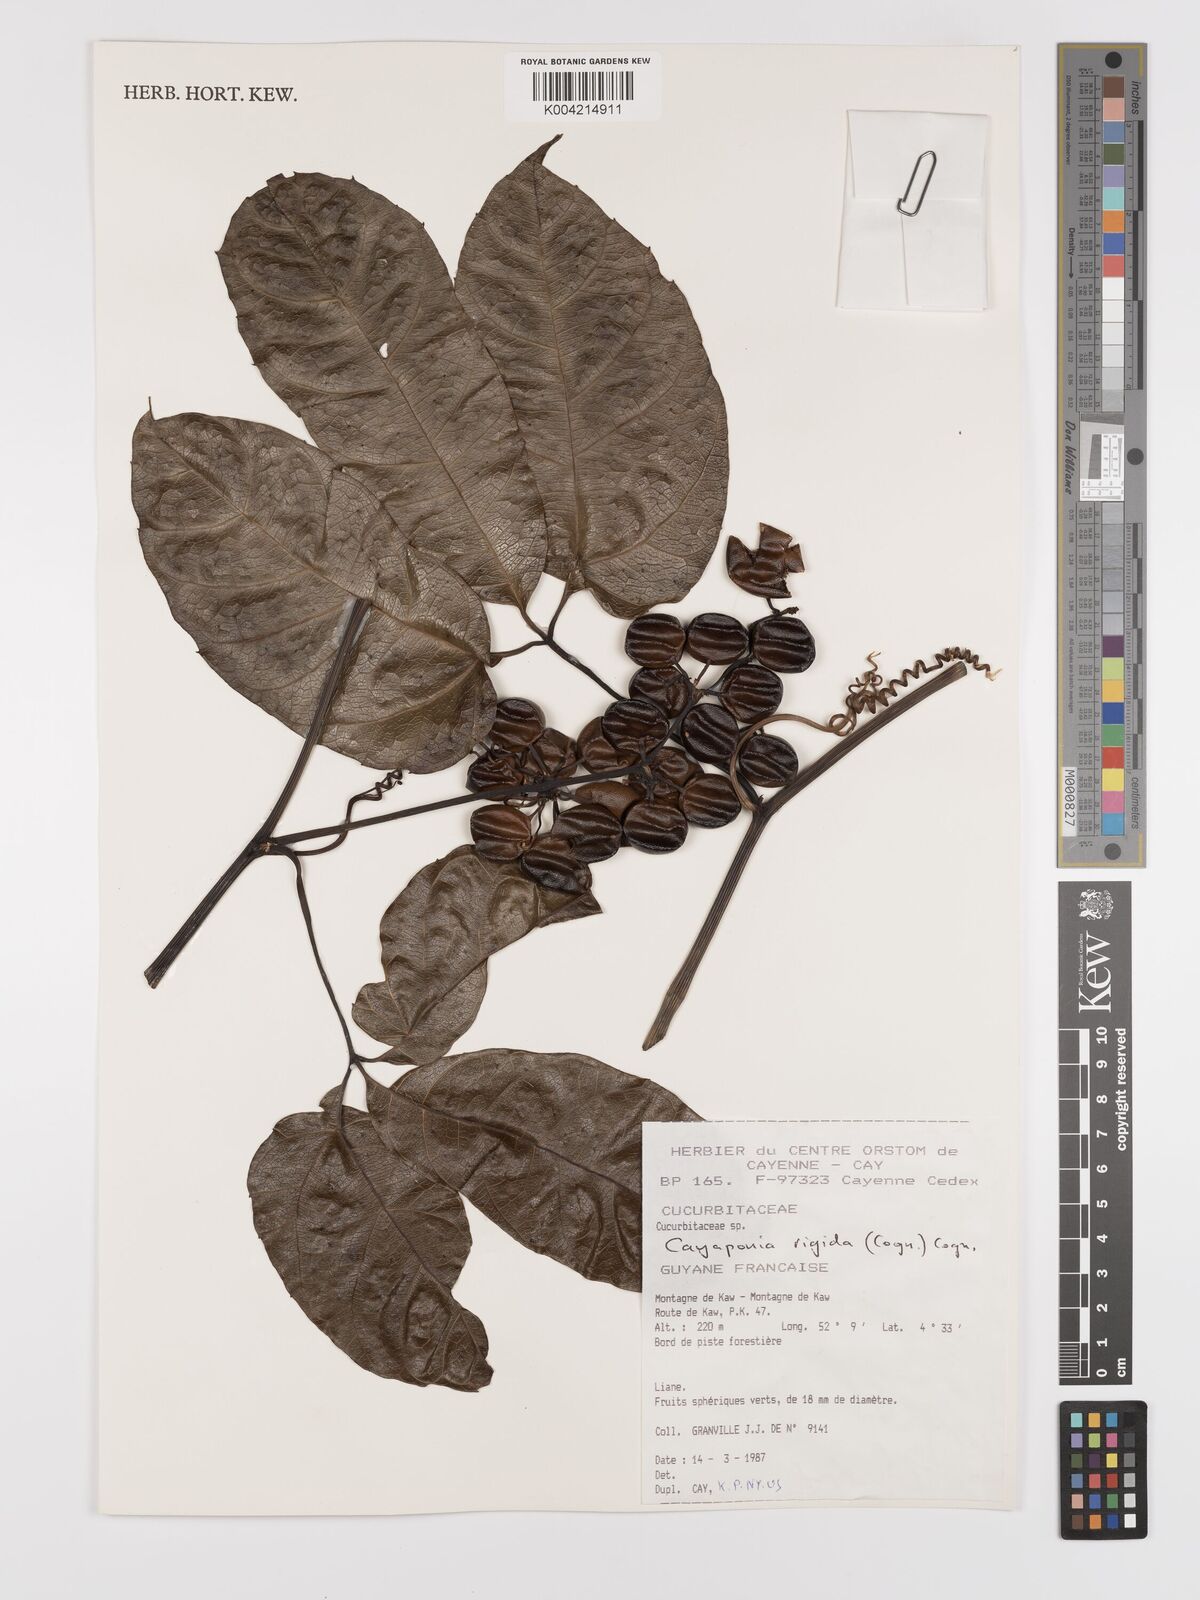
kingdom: Plantae
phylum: Tracheophyta
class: Magnoliopsida
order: Cucurbitales
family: Cucurbitaceae
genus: Cayaponia
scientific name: Cayaponia rigida
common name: Boskomkommer
